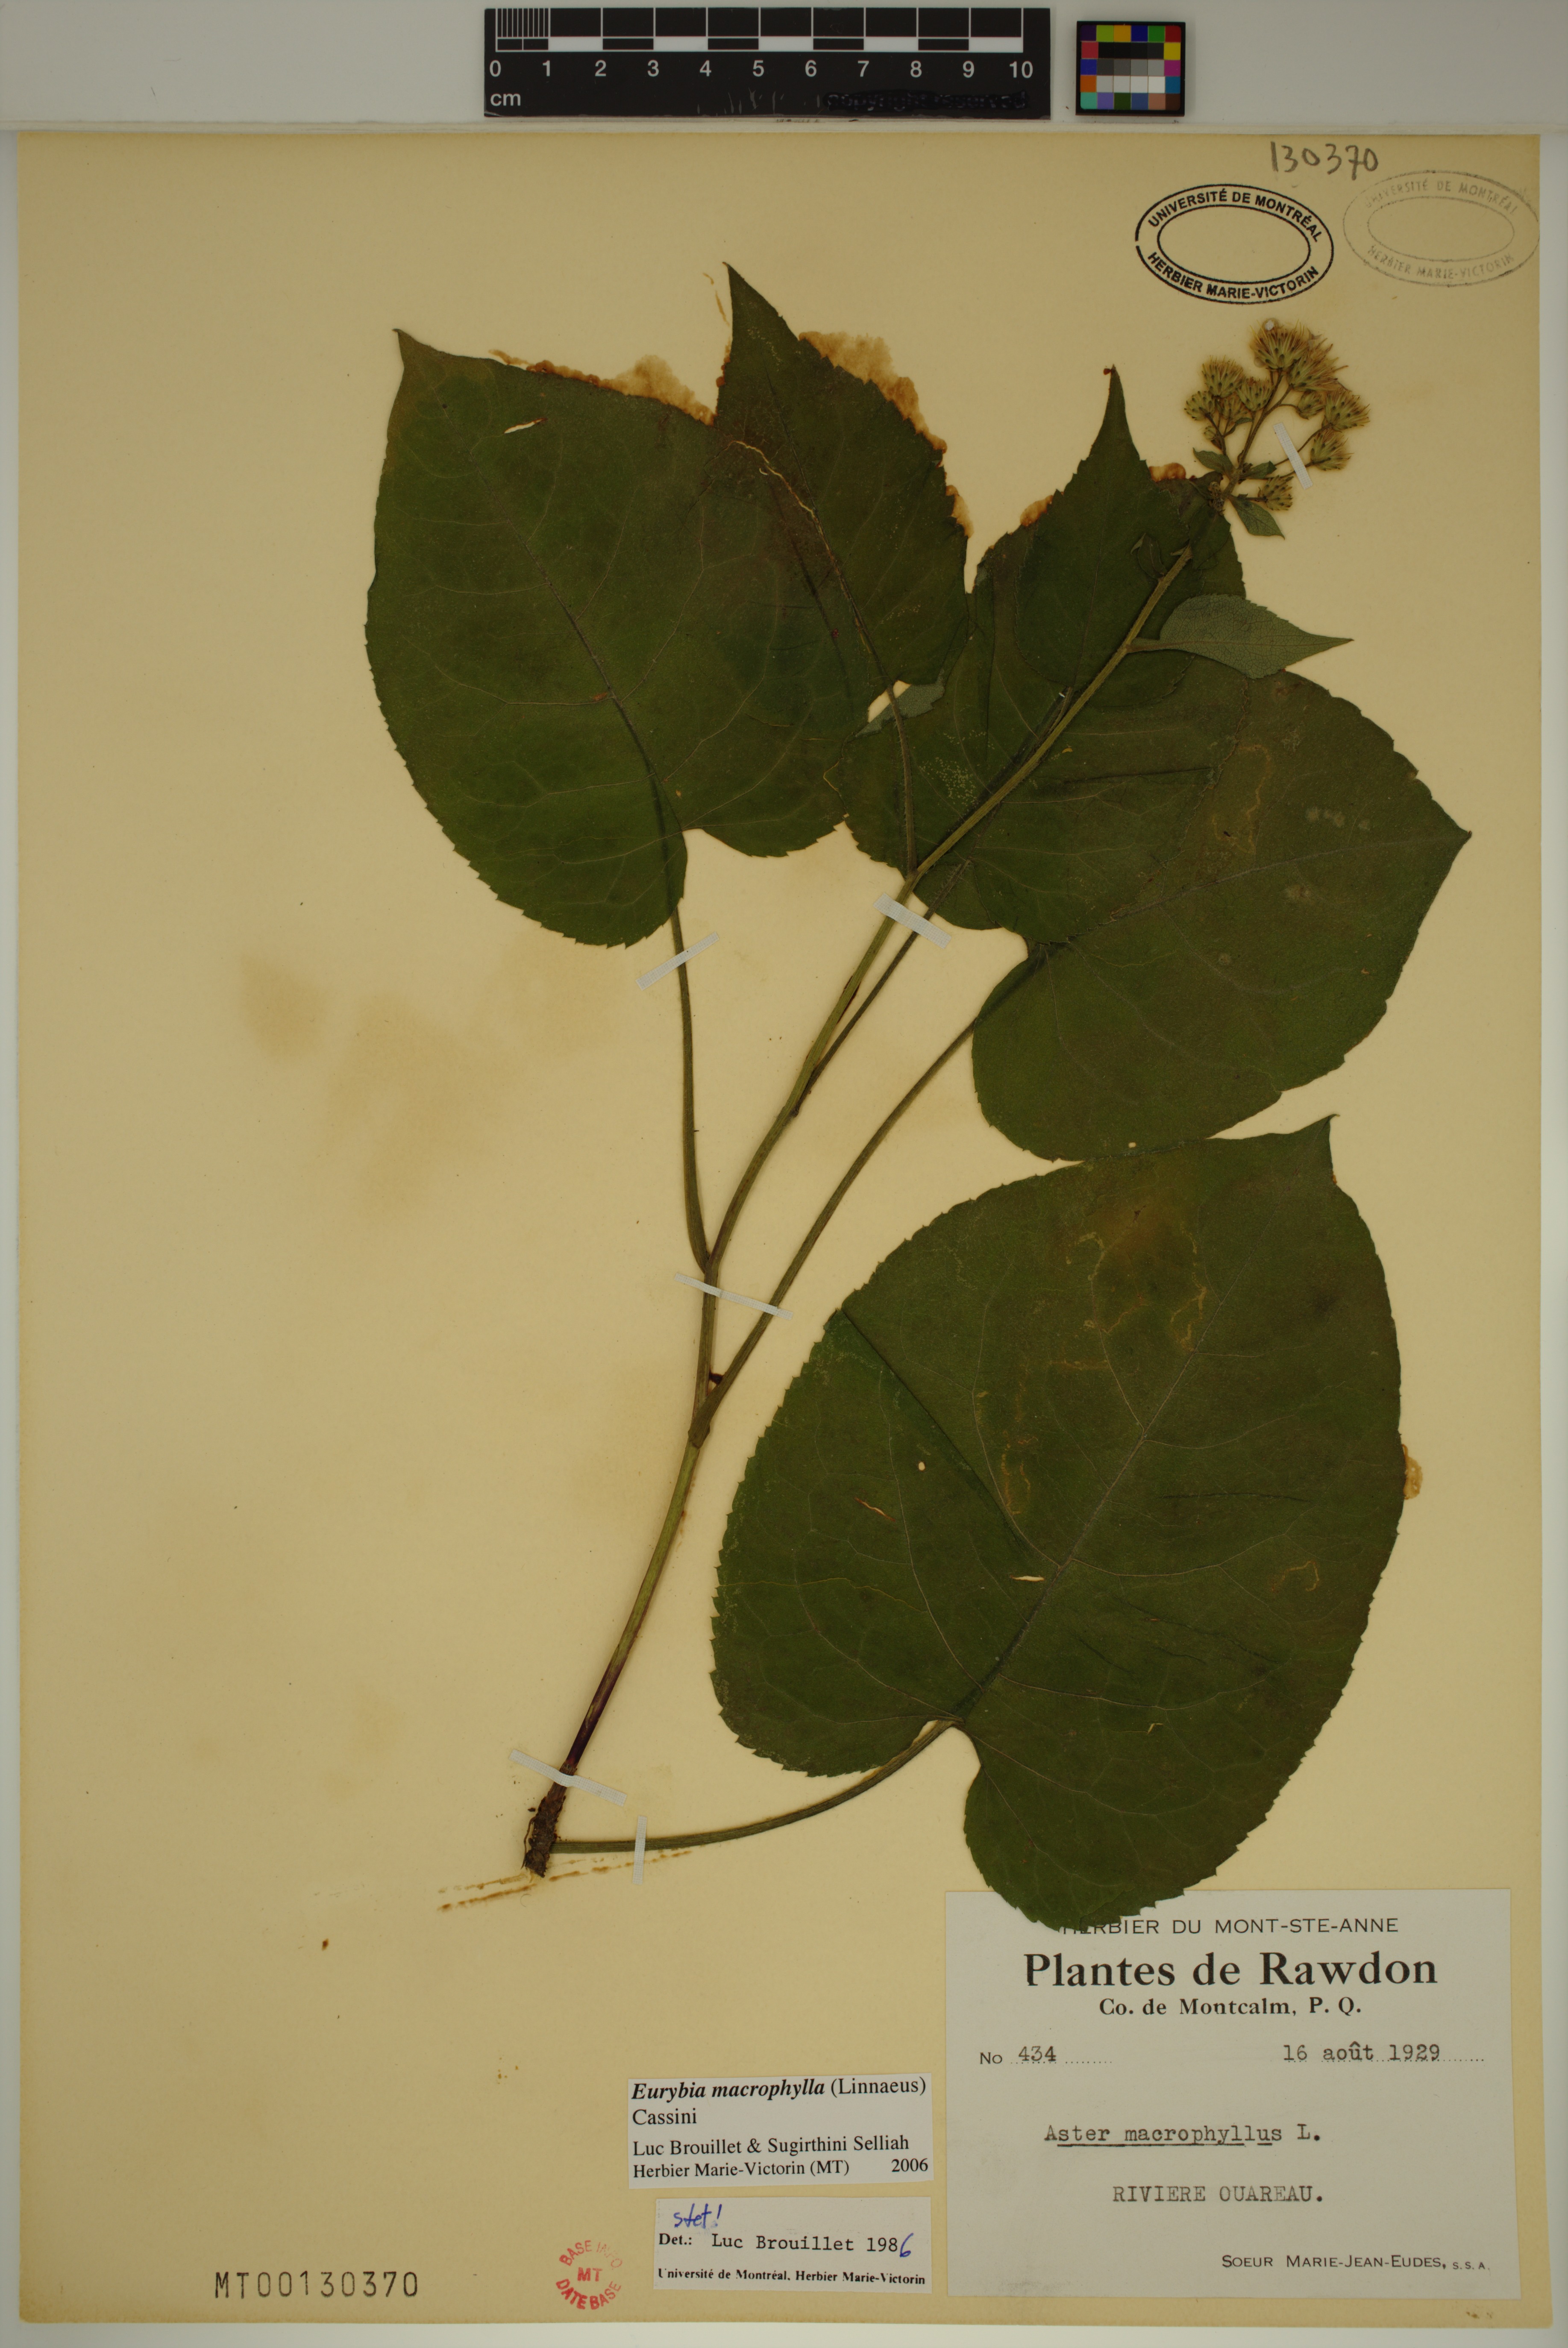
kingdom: Plantae
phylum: Tracheophyta
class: Magnoliopsida
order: Asterales
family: Asteraceae
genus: Eurybia
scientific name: Eurybia macrophylla
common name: Big-leaved aster
